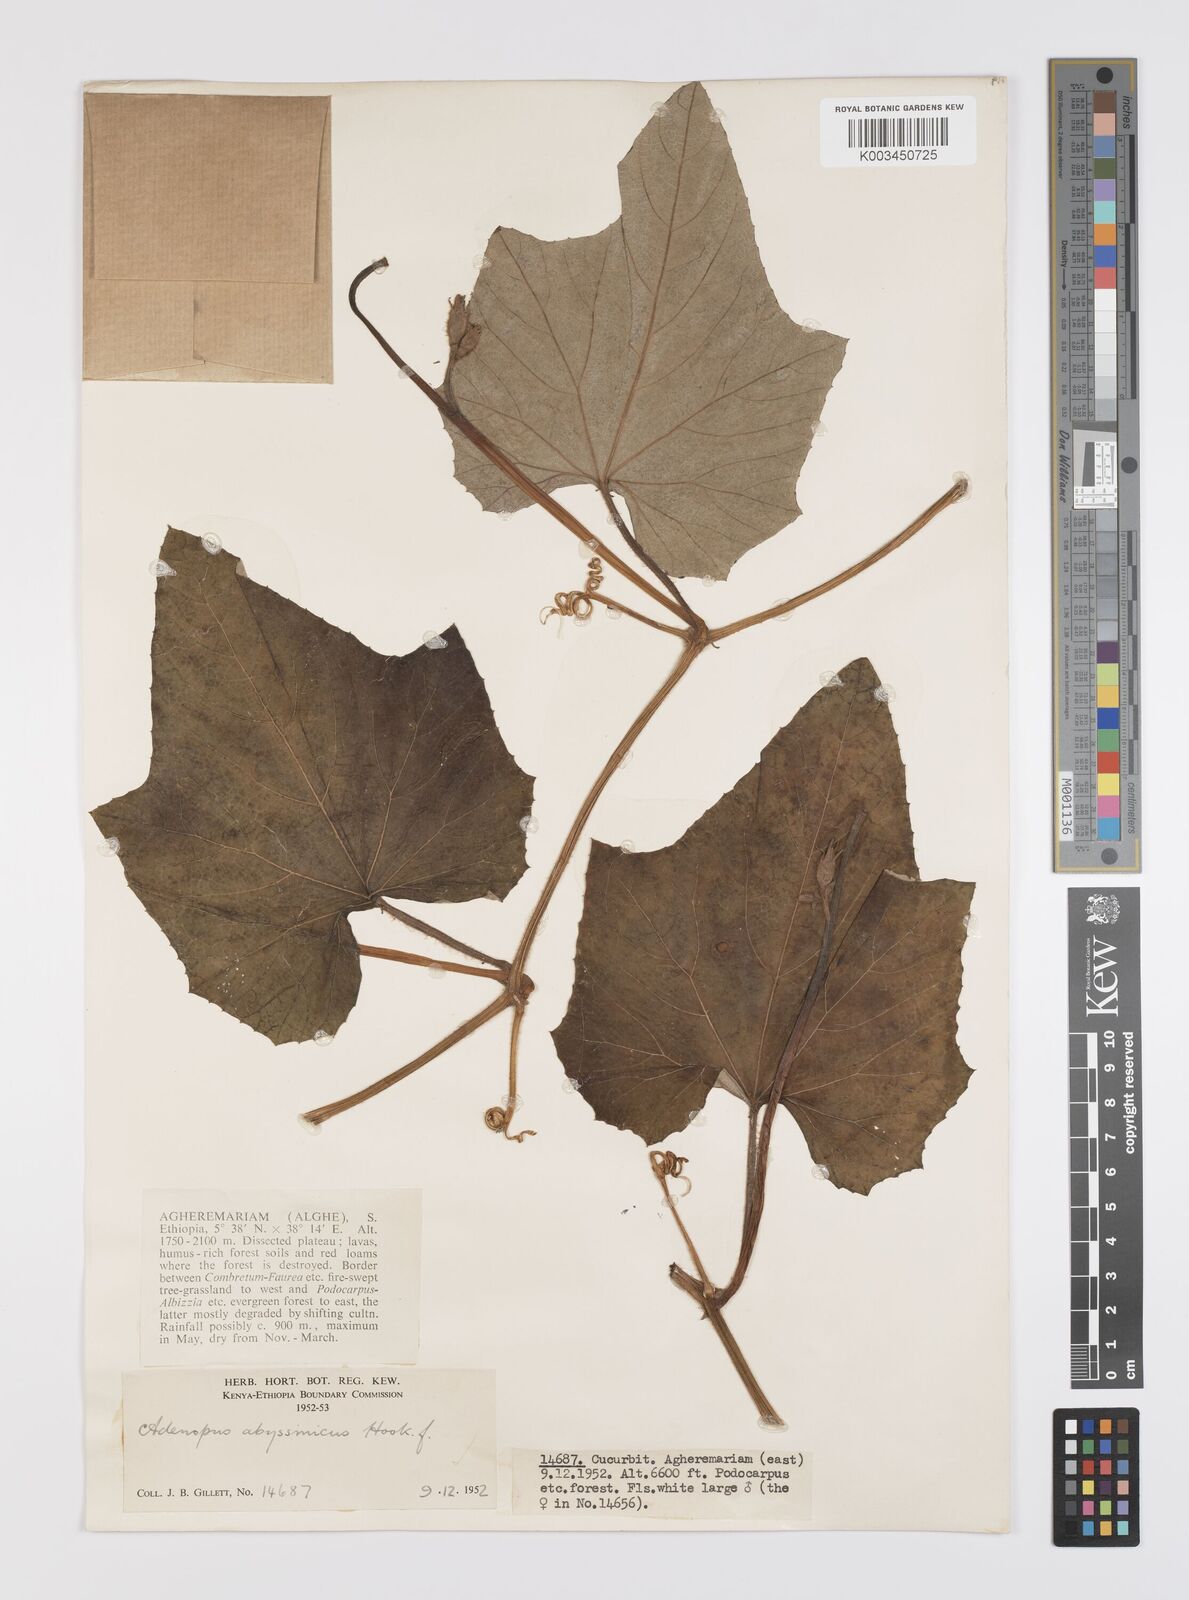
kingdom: Plantae
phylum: Tracheophyta
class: Magnoliopsida
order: Cucurbitales
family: Cucurbitaceae
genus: Lagenaria
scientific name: Lagenaria abyssinica
